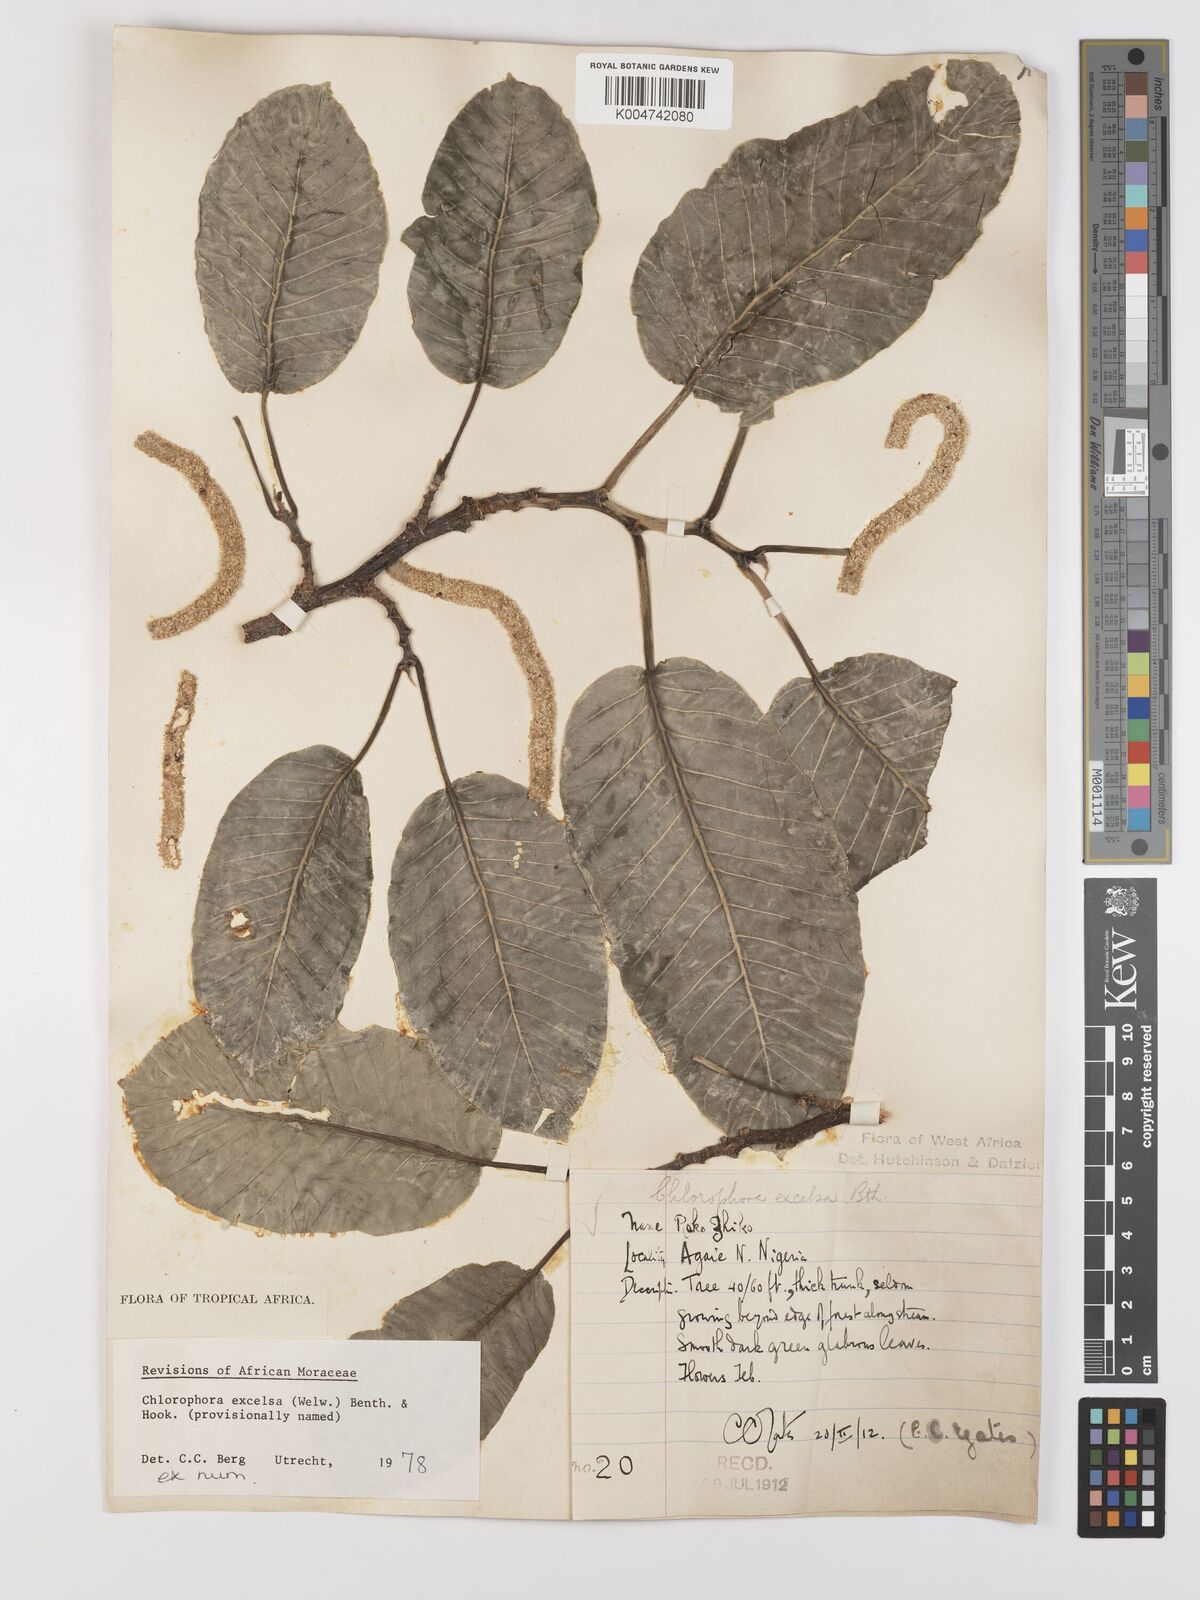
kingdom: Plantae
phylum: Tracheophyta
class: Magnoliopsida
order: Rosales
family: Moraceae
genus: Milicia
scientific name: Milicia excelsa
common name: African teak
